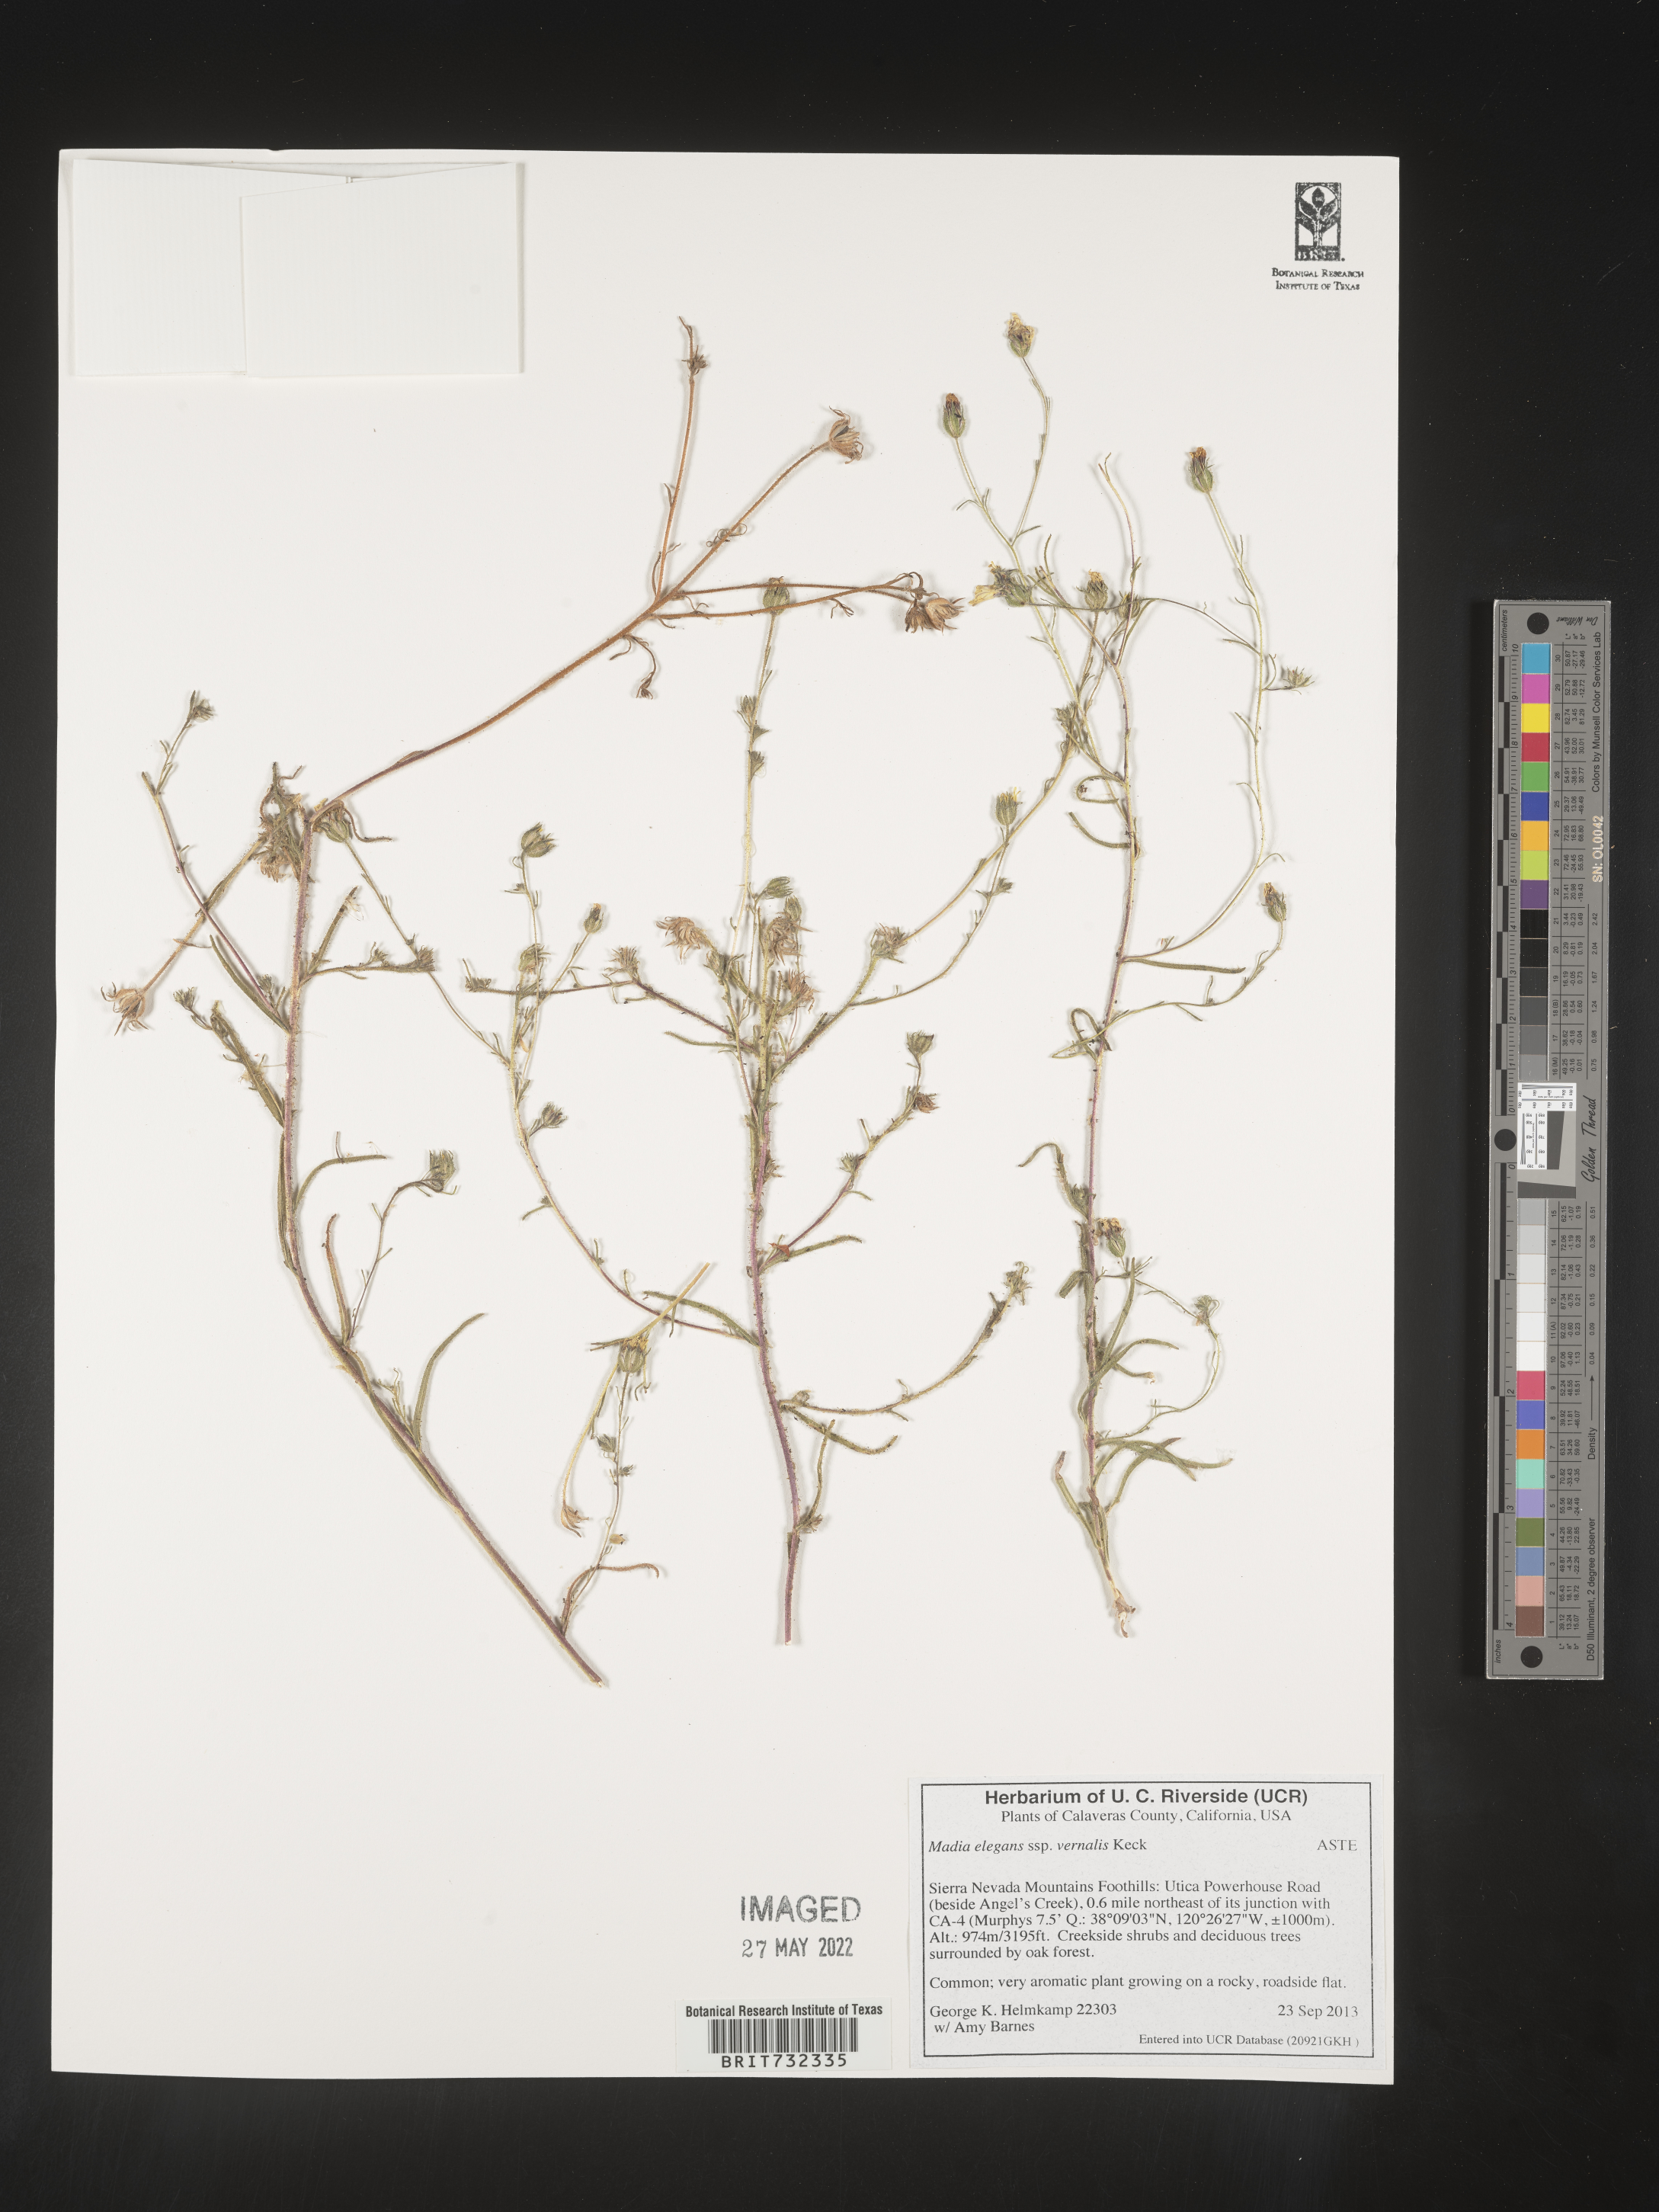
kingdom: Plantae
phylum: Tracheophyta
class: Magnoliopsida
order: Asterales
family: Asteraceae
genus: Madia
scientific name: Madia
